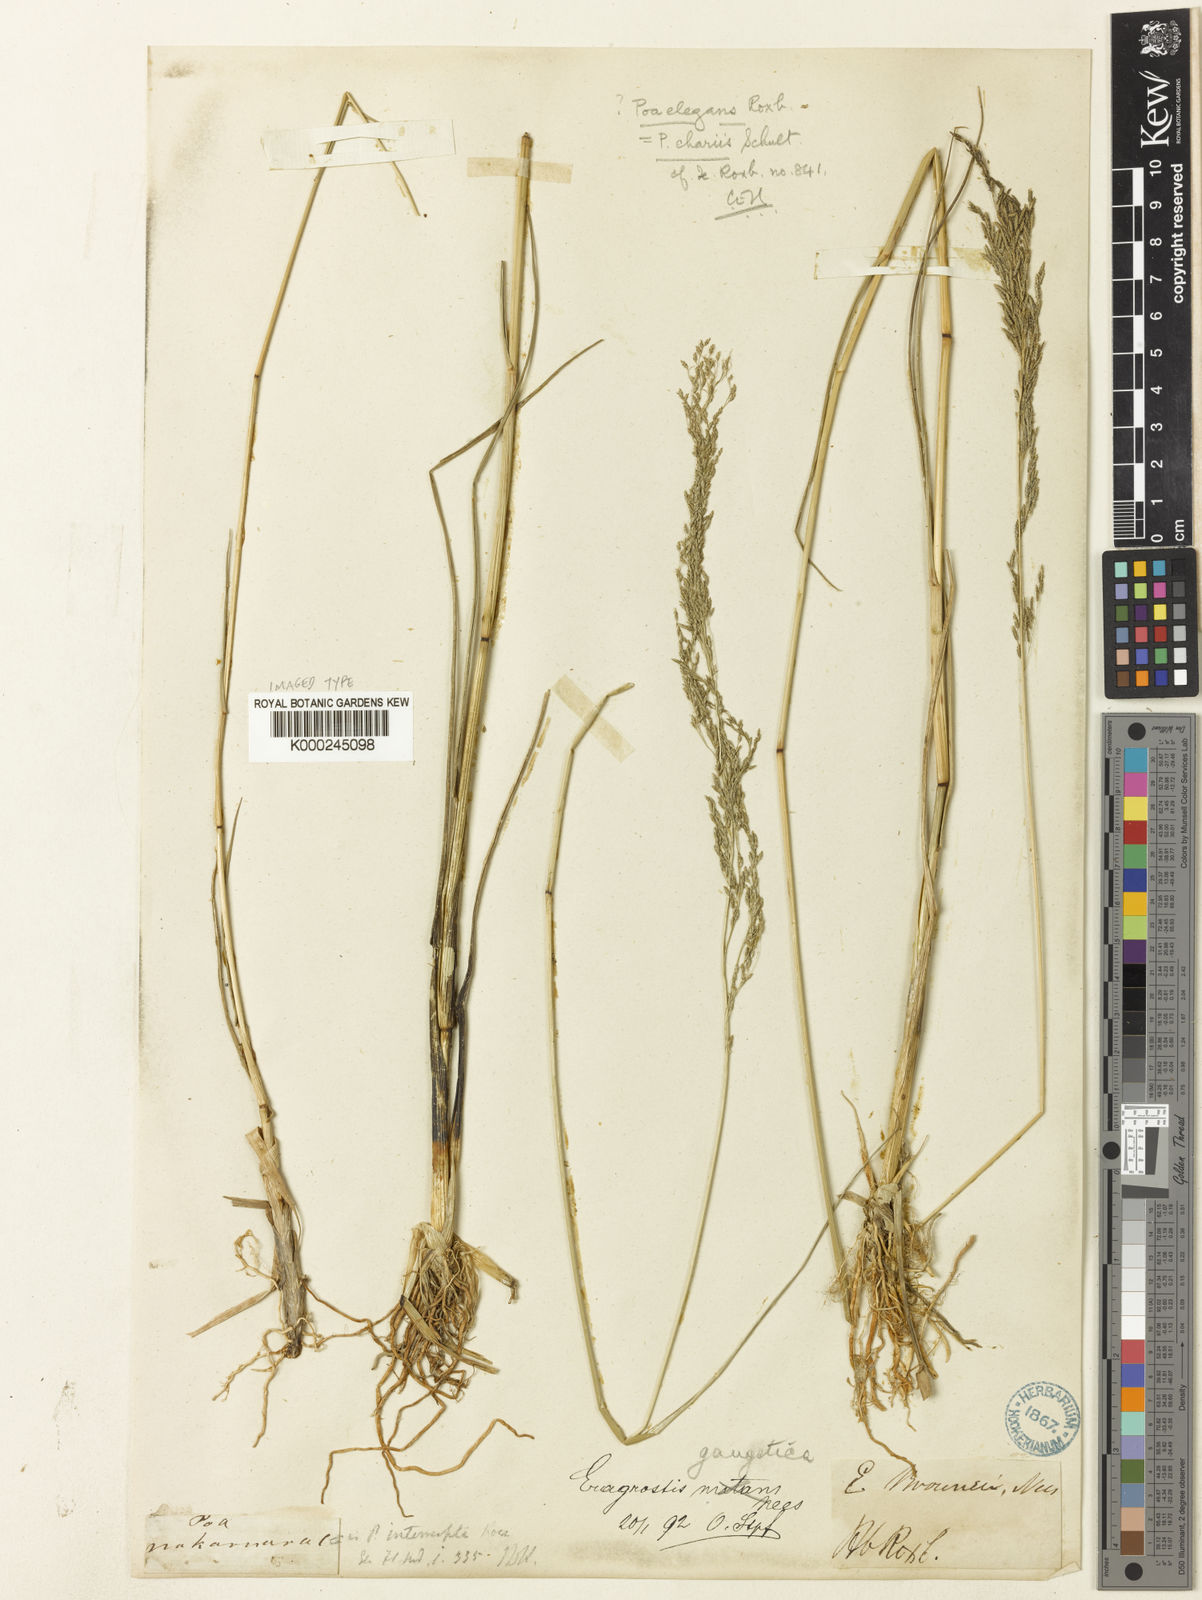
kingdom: Plantae
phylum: Tracheophyta
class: Liliopsida
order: Poales
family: Poaceae
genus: Eragrostis
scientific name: Eragrostis nutans
